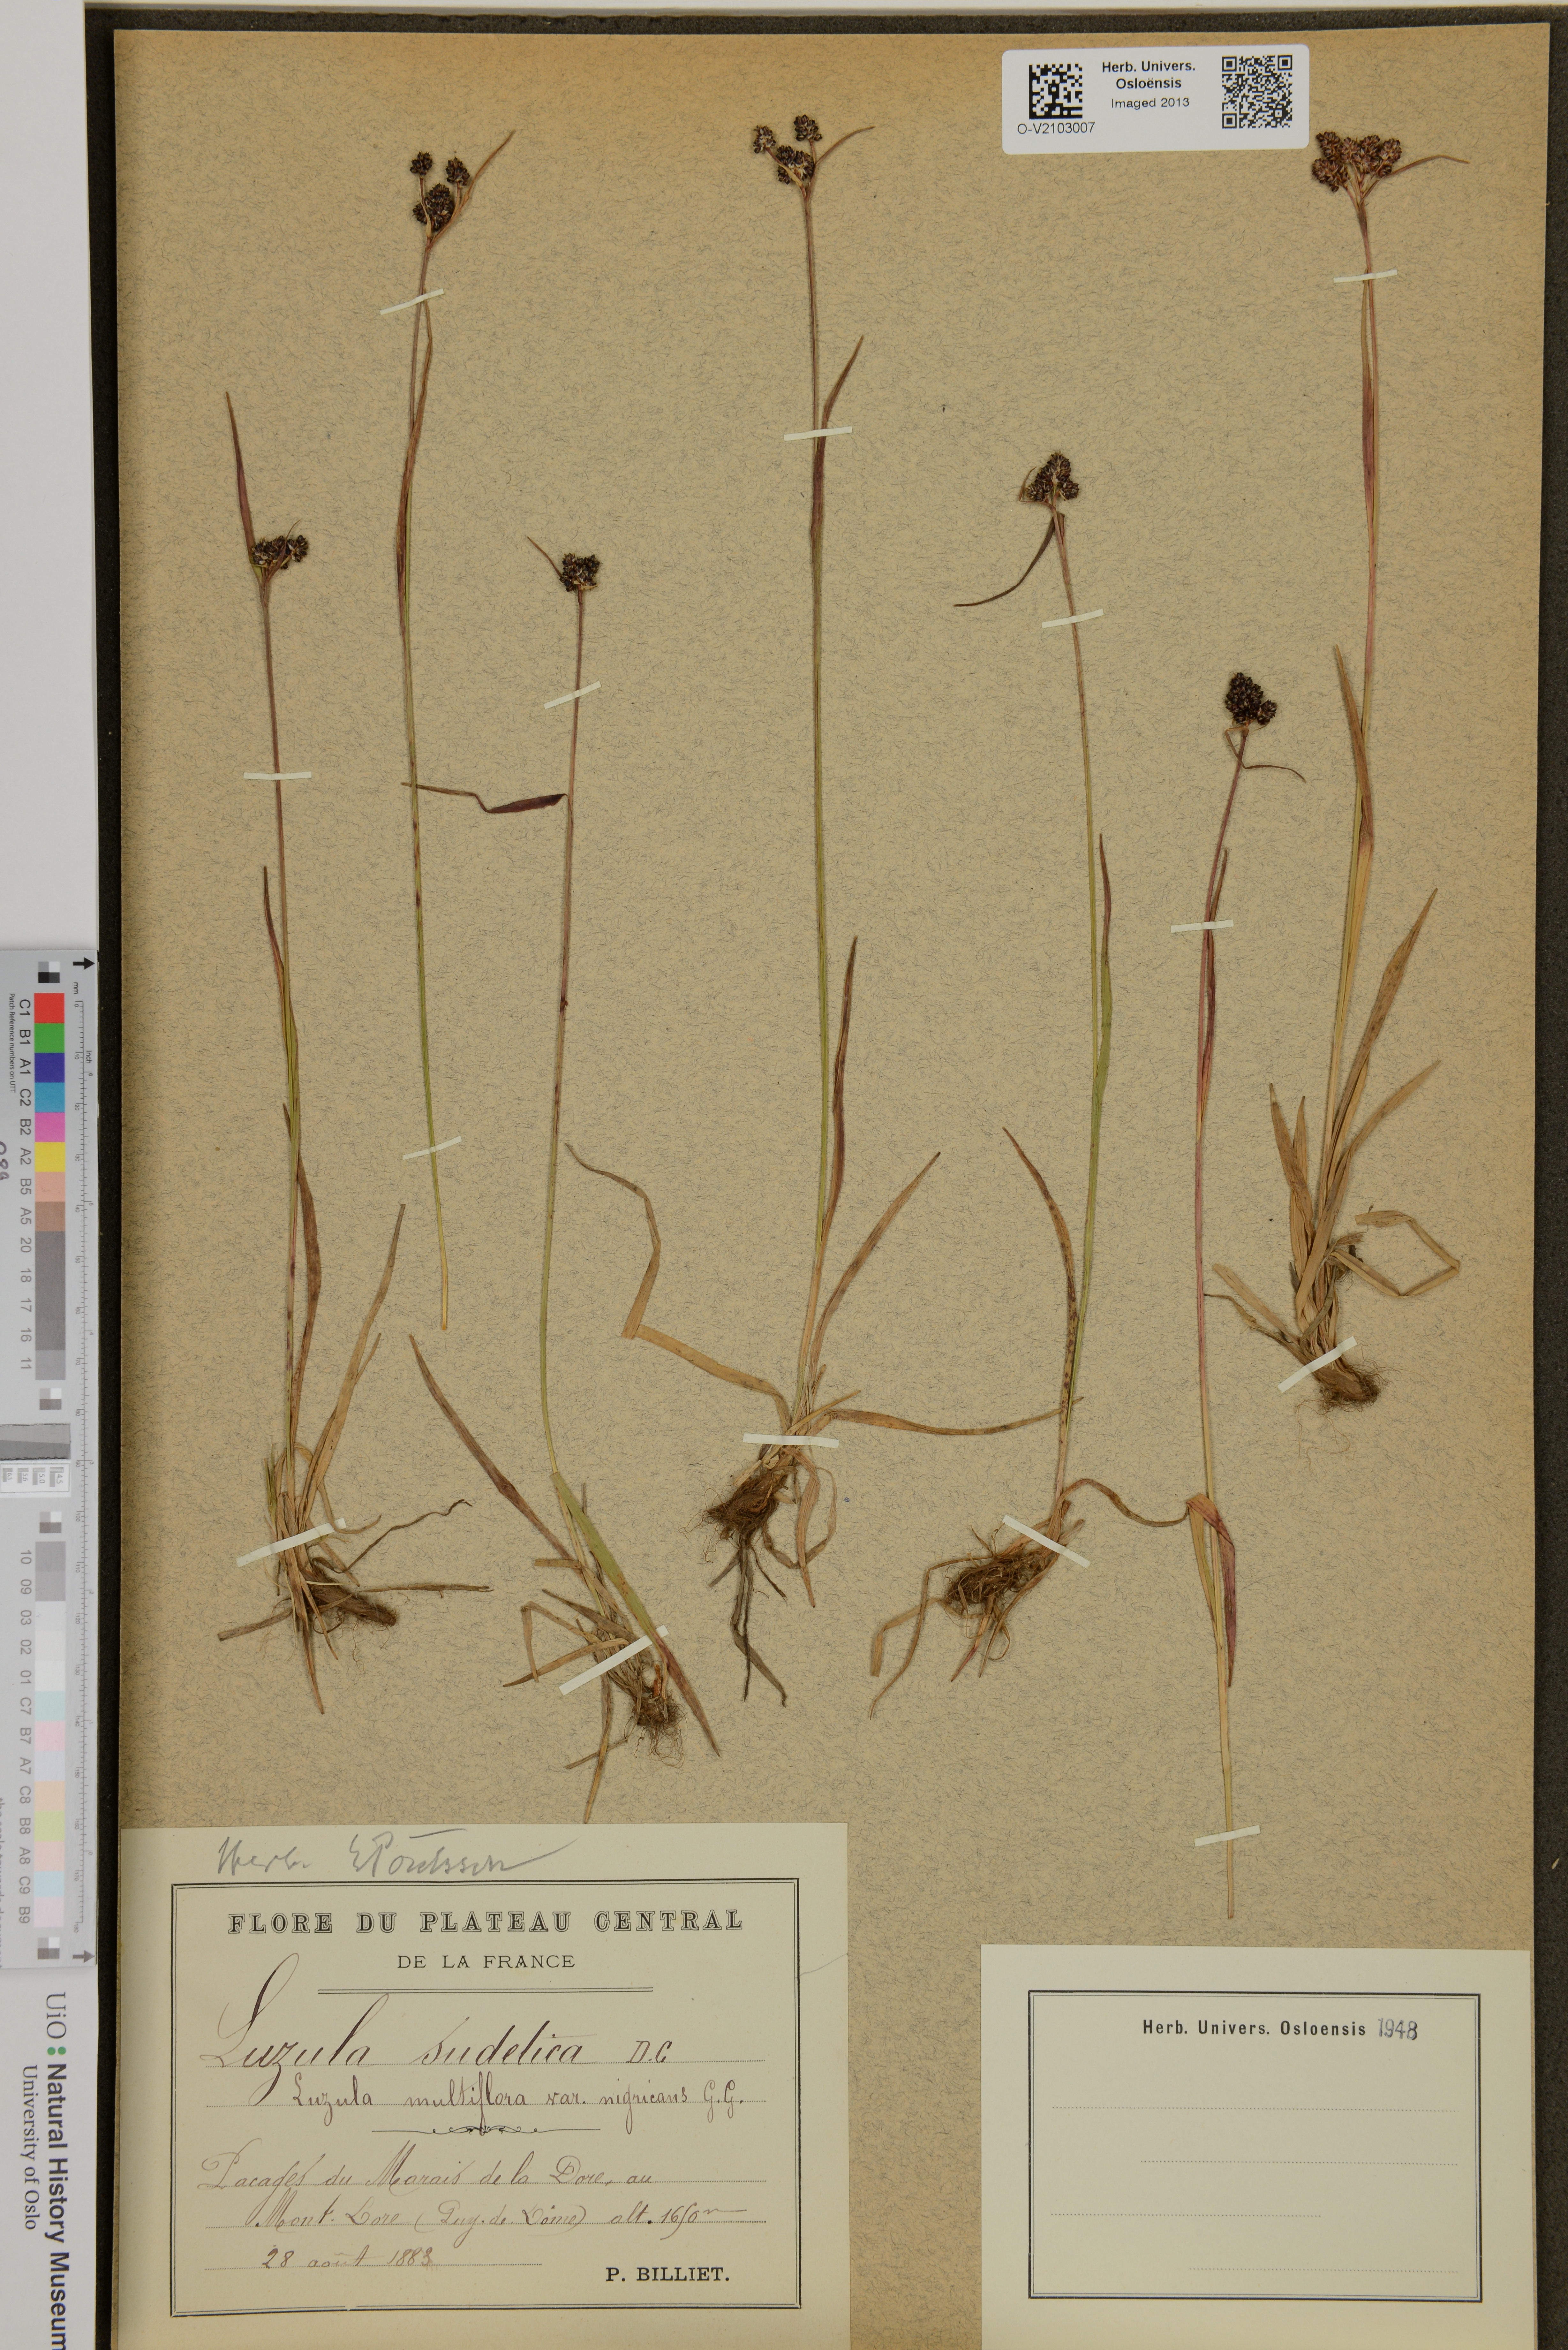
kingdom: Plantae
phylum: Tracheophyta
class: Liliopsida
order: Poales
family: Juncaceae
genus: Luzula
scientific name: Luzula sudetica
